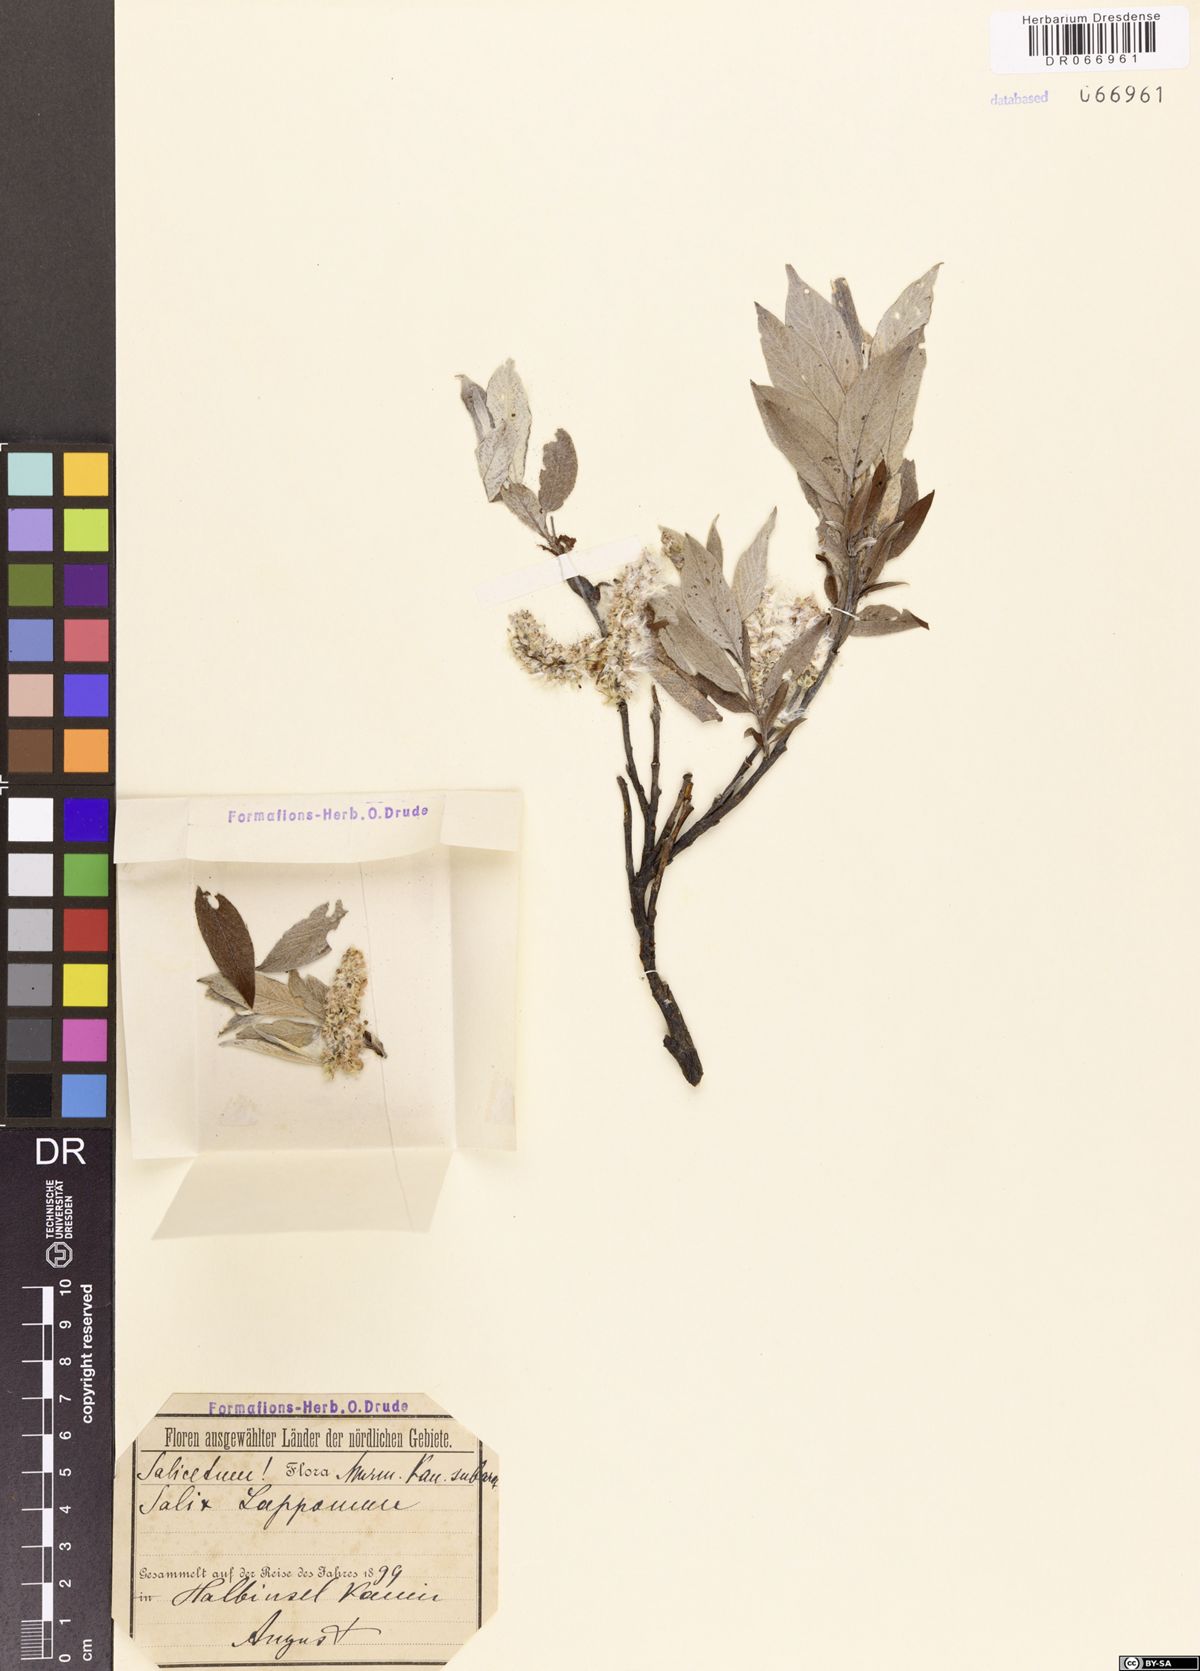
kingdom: Plantae
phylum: Tracheophyta
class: Magnoliopsida
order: Malpighiales
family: Salicaceae
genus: Salix
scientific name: Salix lapponum
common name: Downy willow
